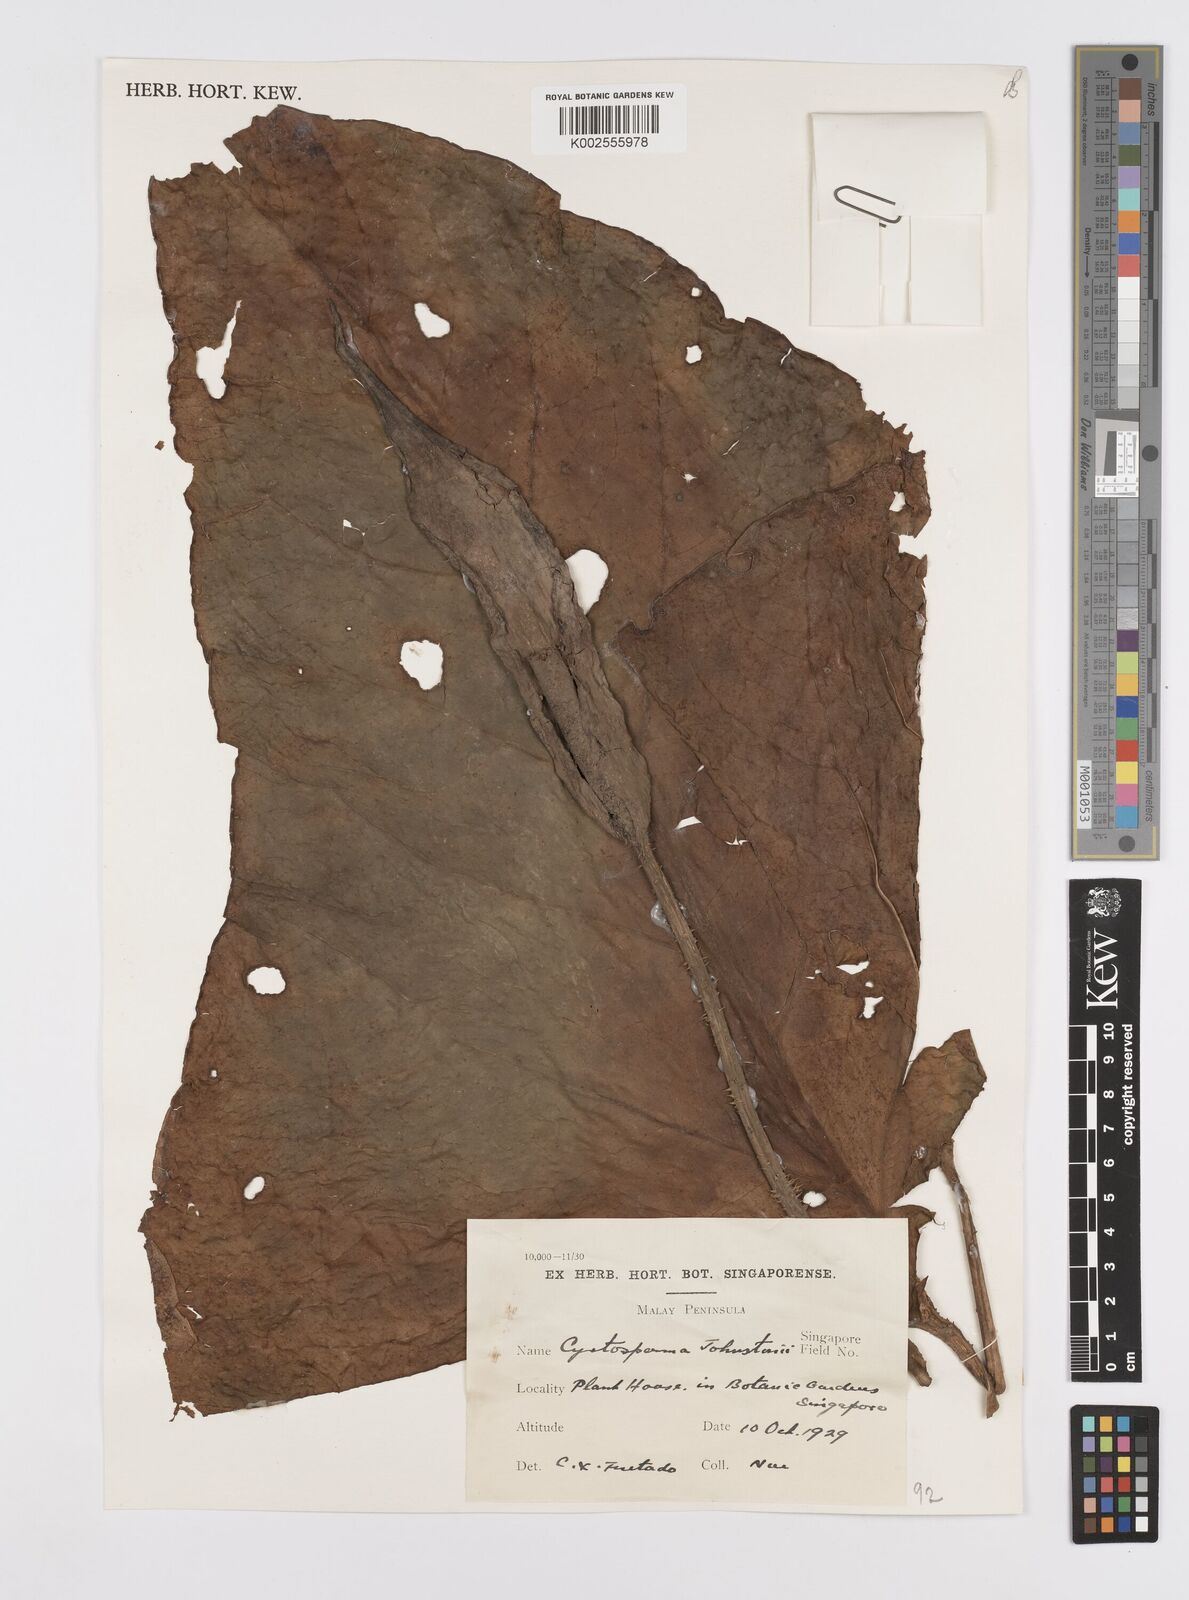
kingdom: Plantae
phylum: Tracheophyta
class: Liliopsida
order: Alismatales
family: Araceae
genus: Cyrtosperma
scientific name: Cyrtosperma johnstonii
